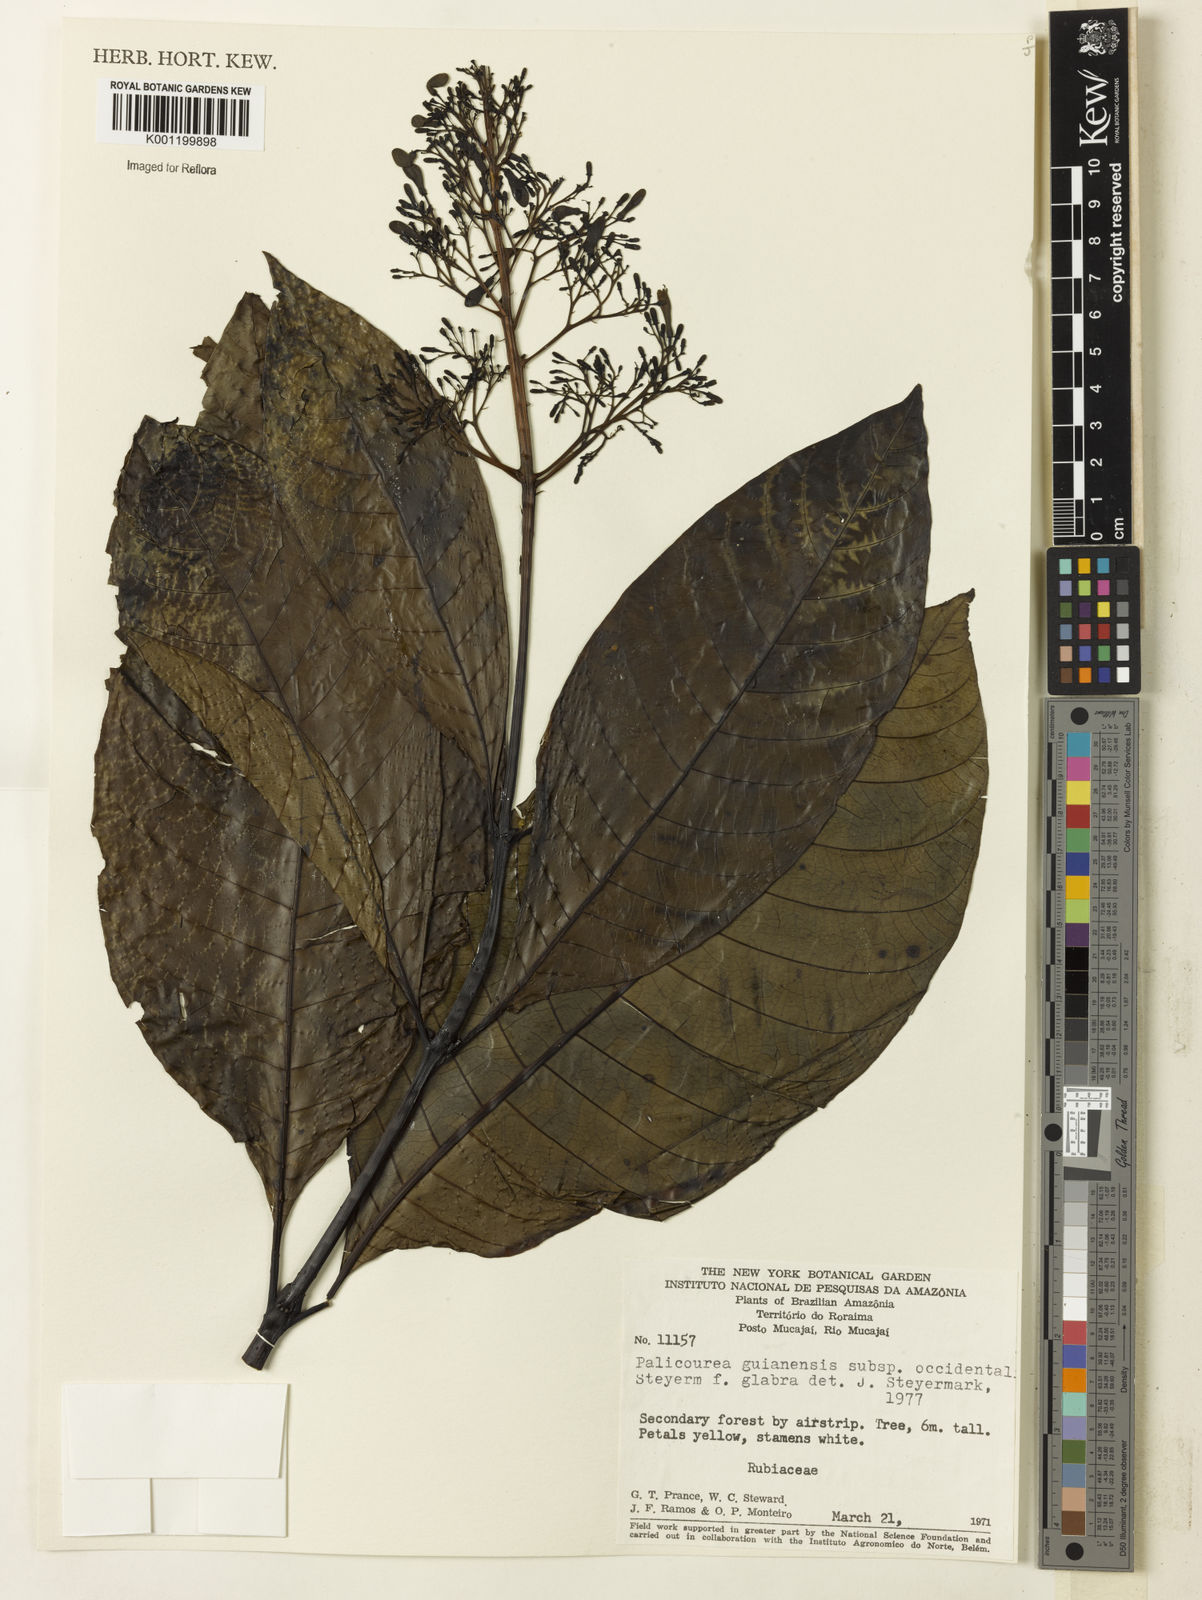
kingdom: Plantae
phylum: Tracheophyta
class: Magnoliopsida
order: Gentianales
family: Rubiaceae
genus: Palicourea
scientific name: Palicourea guianensis
